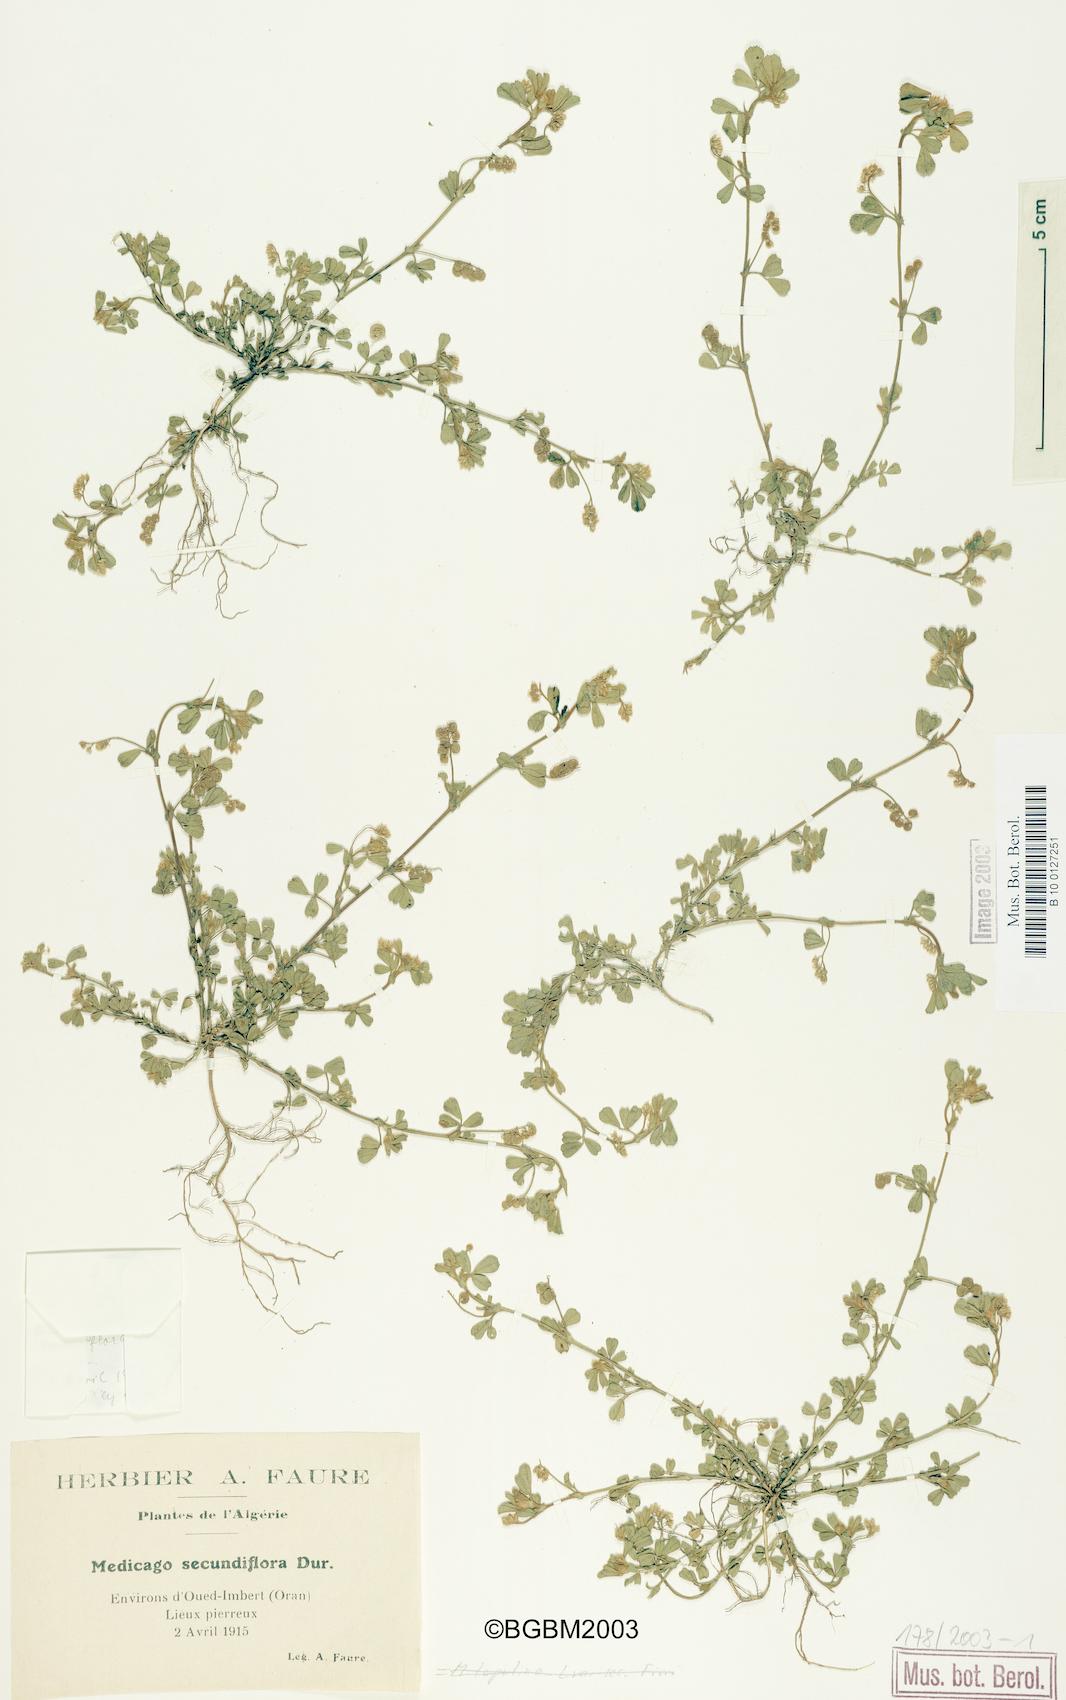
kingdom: Plantae
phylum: Tracheophyta
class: Magnoliopsida
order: Fabales
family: Fabaceae
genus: Medicago
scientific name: Medicago secundiflora
